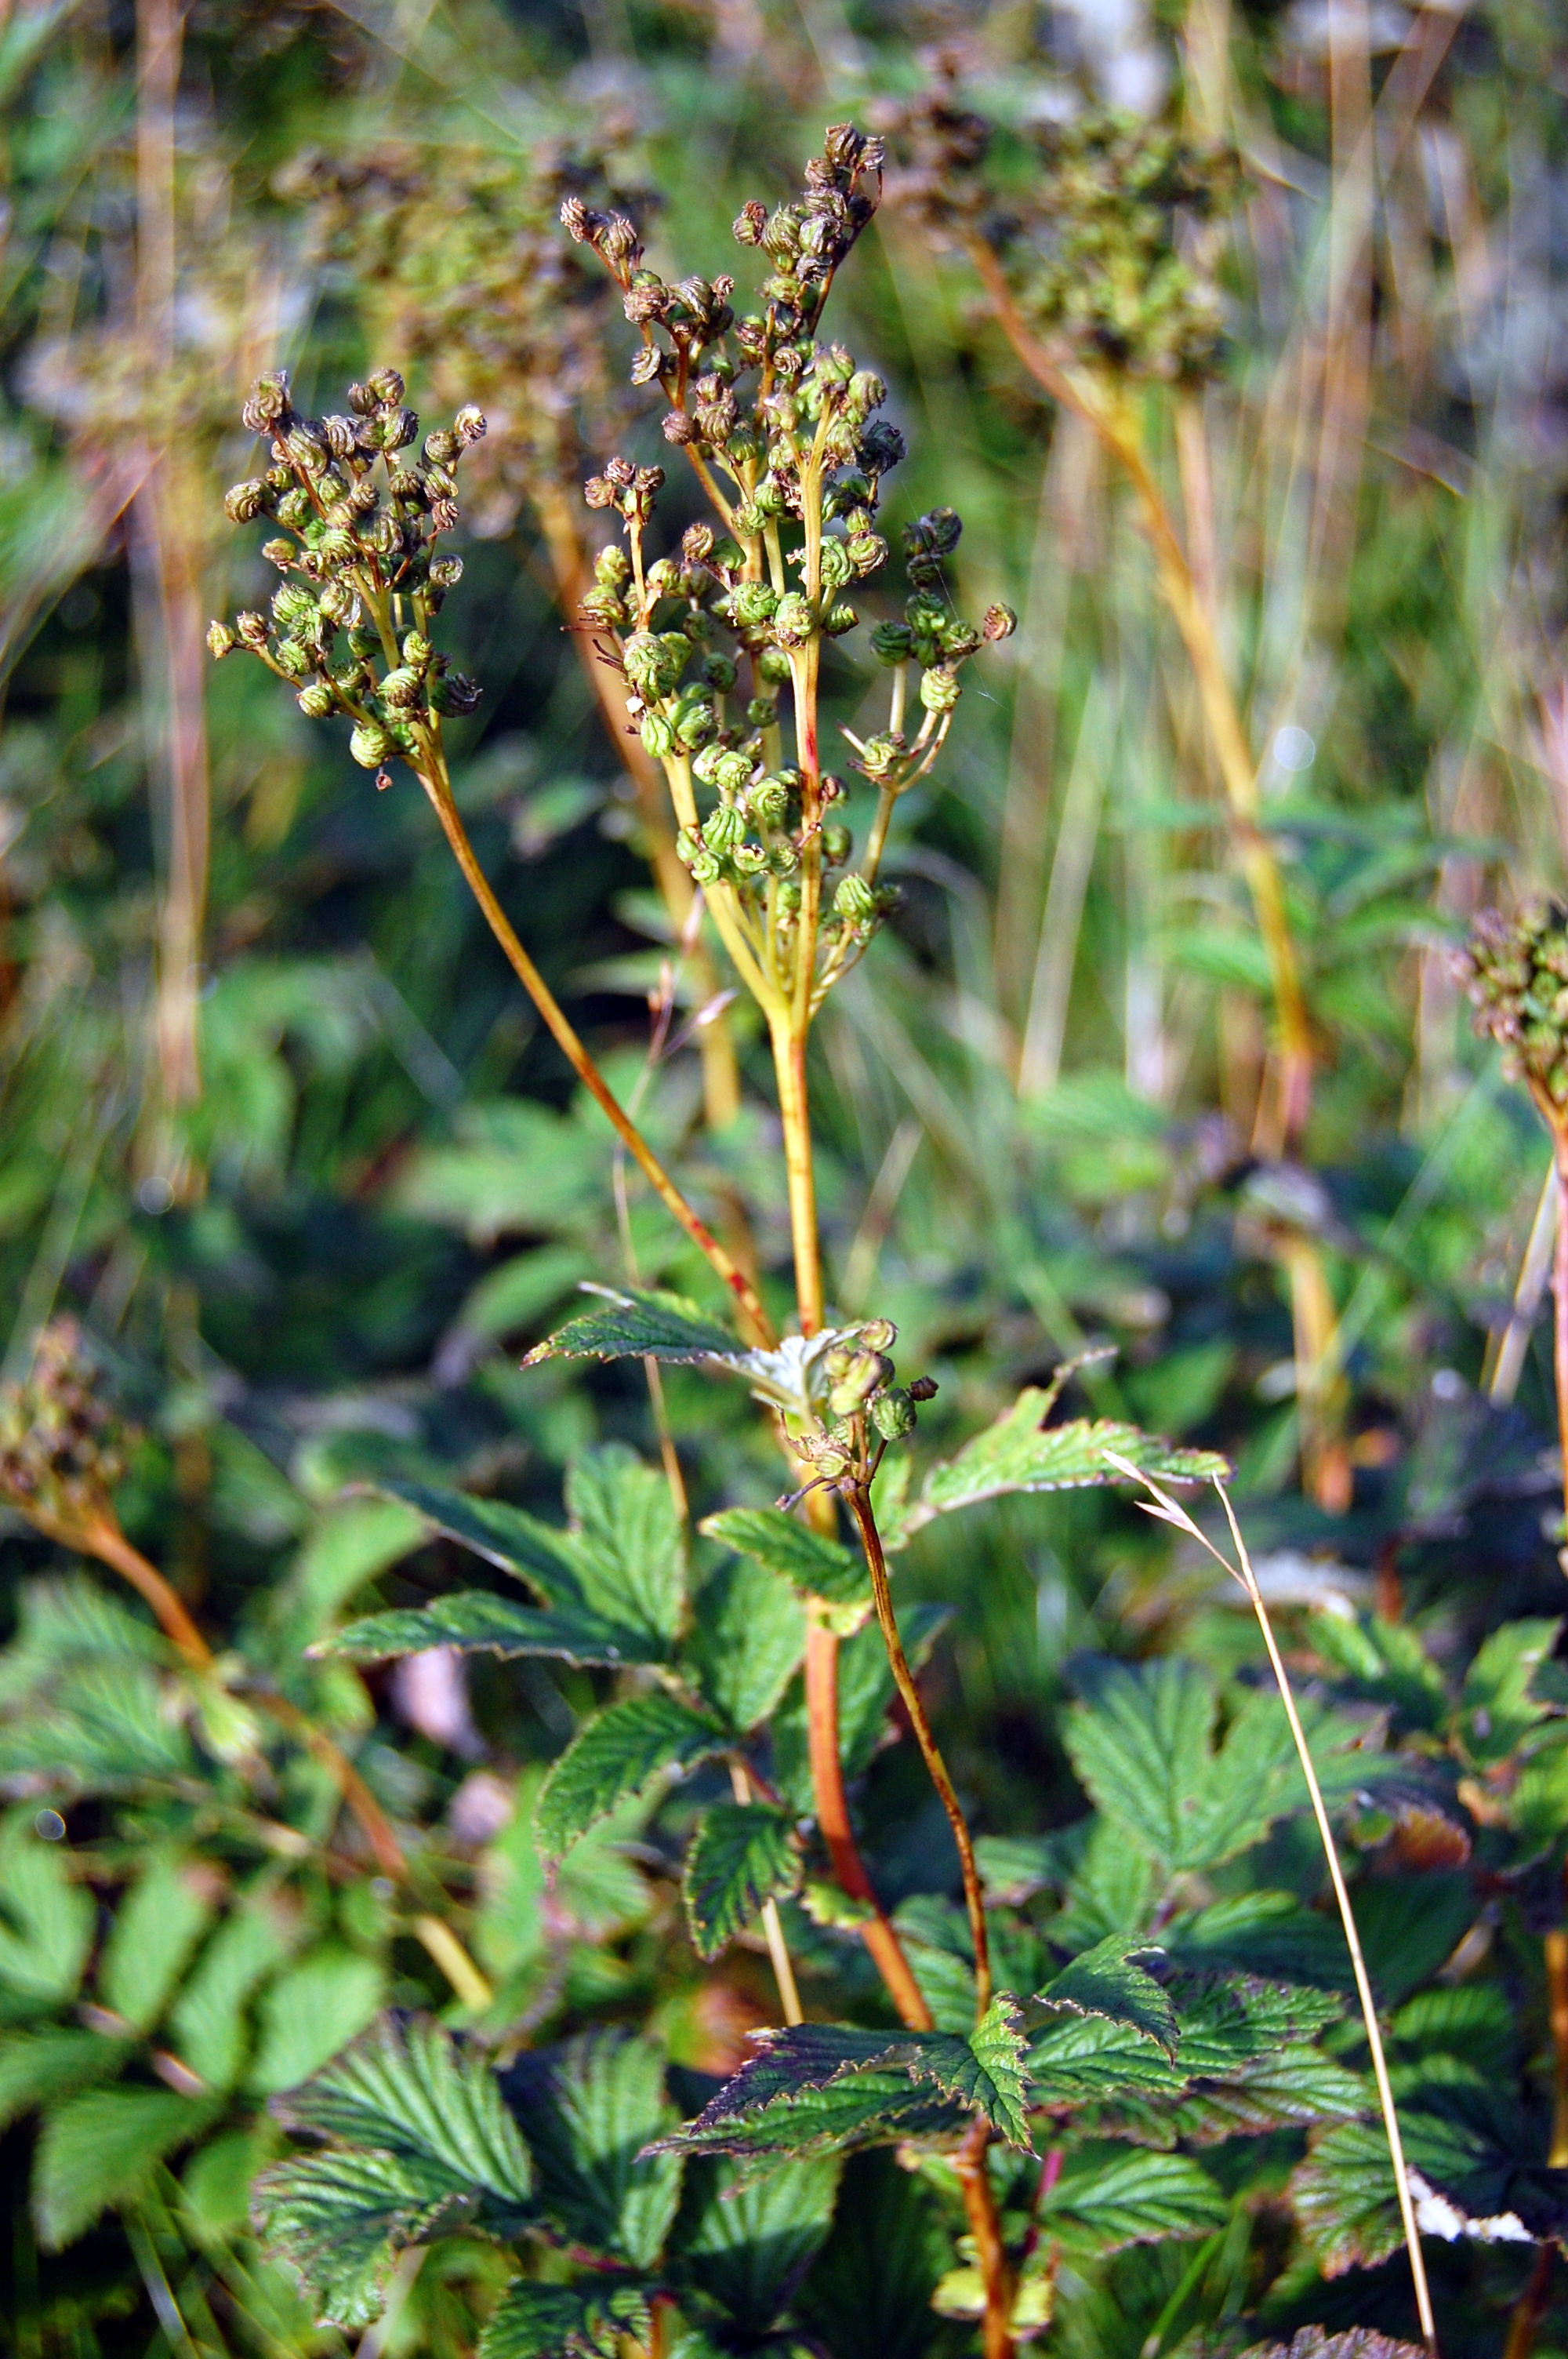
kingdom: Plantae
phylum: Tracheophyta
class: Magnoliopsida
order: Rosales
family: Rosaceae
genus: Filipendula
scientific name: Filipendula ulmaria
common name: Meadowsweet
